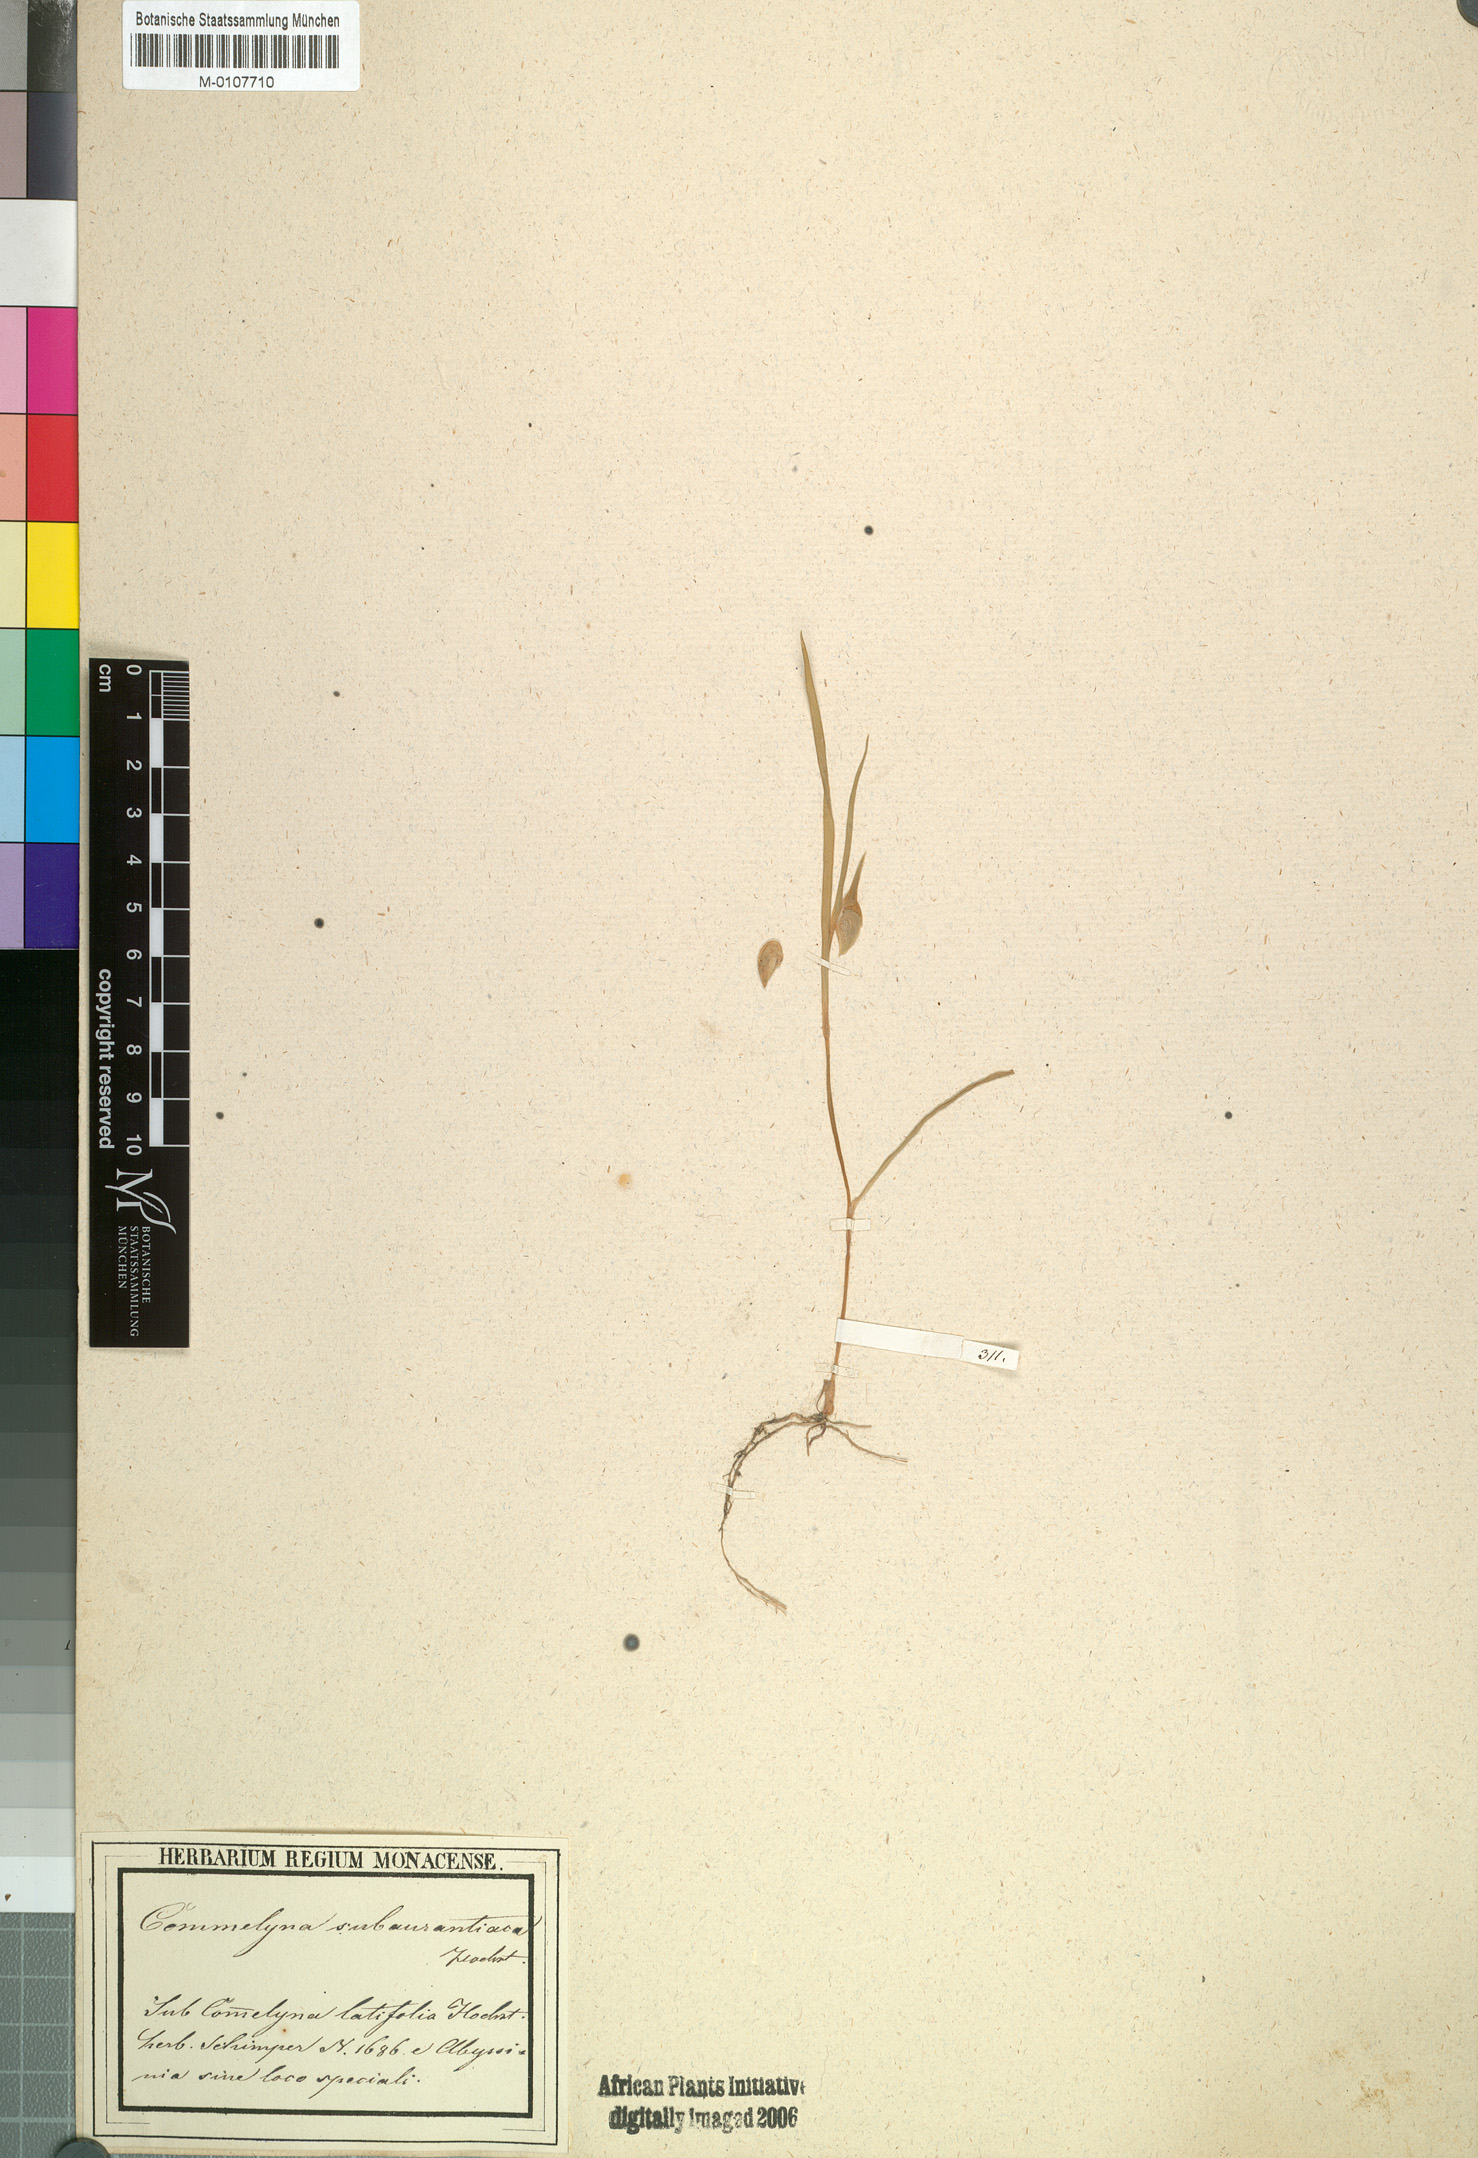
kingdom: Plantae
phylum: Tracheophyta
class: Liliopsida
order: Commelinales
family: Commelinaceae
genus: Commelina
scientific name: Commelina subulata
